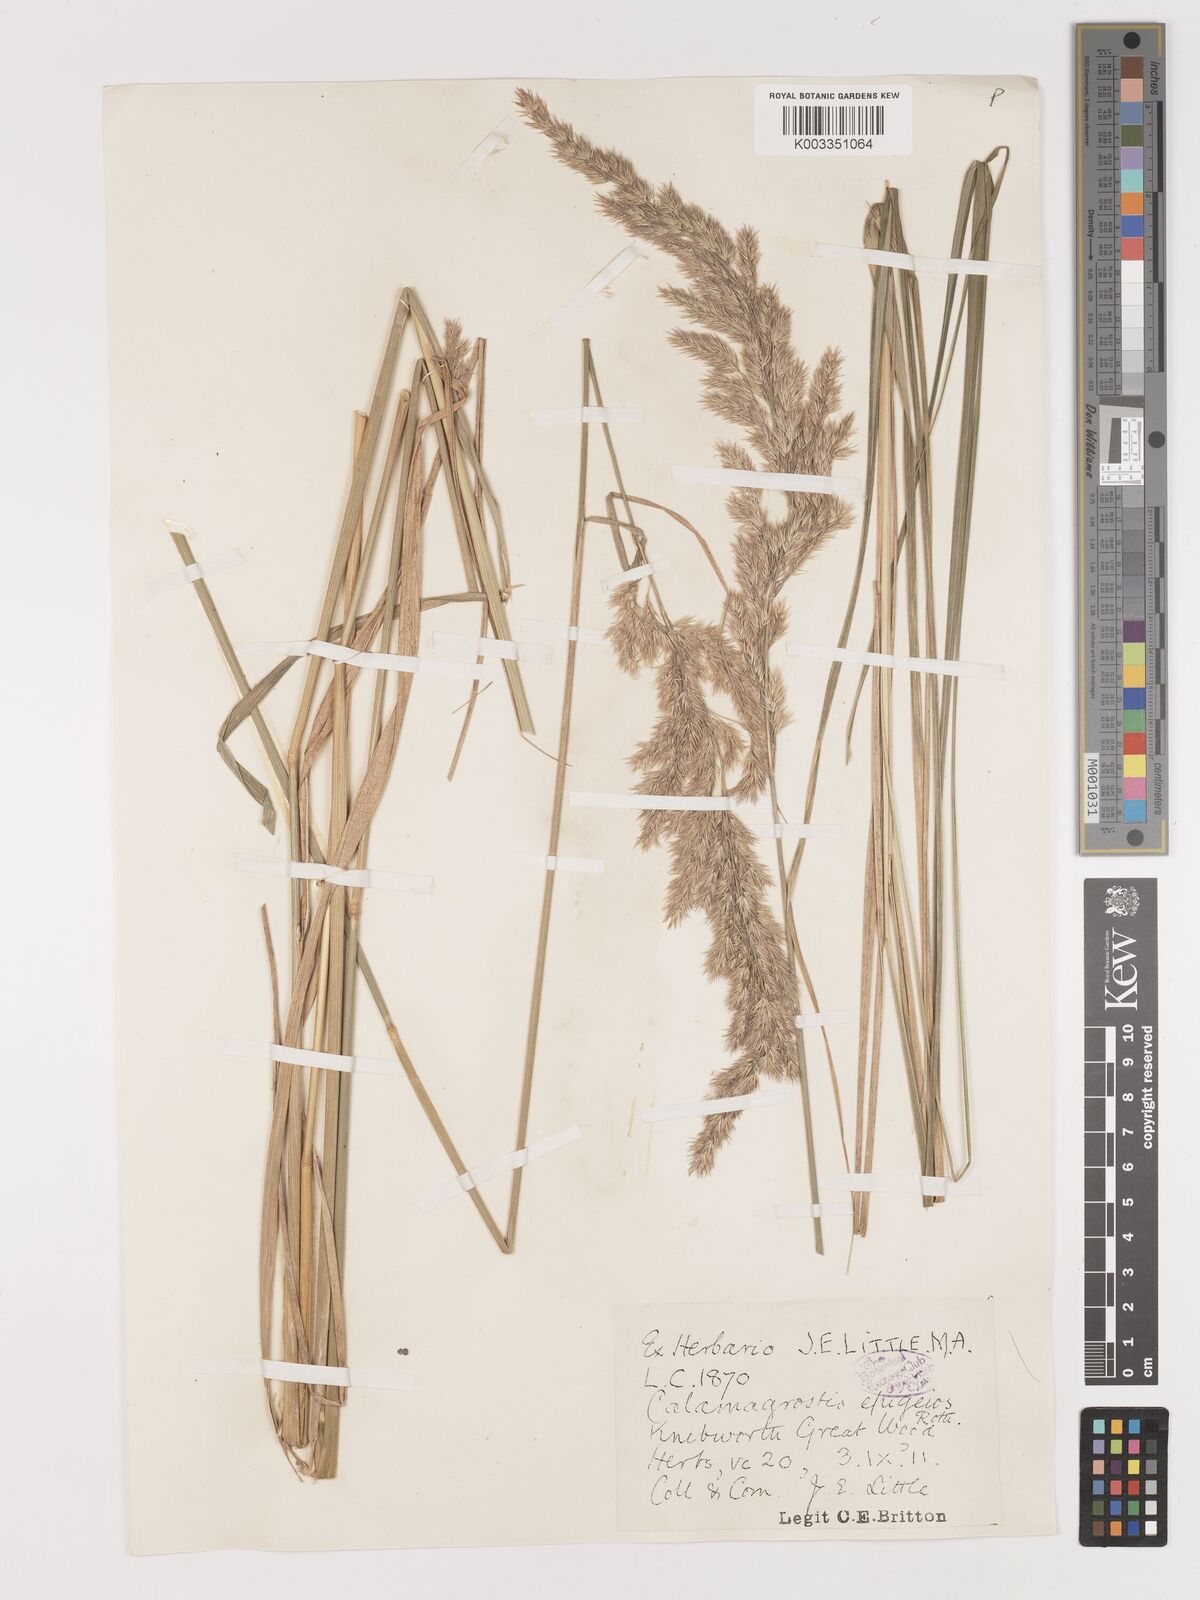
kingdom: Plantae
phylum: Tracheophyta
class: Liliopsida
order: Poales
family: Poaceae
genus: Calamagrostis
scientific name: Calamagrostis epigejos
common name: Wood small-reed
